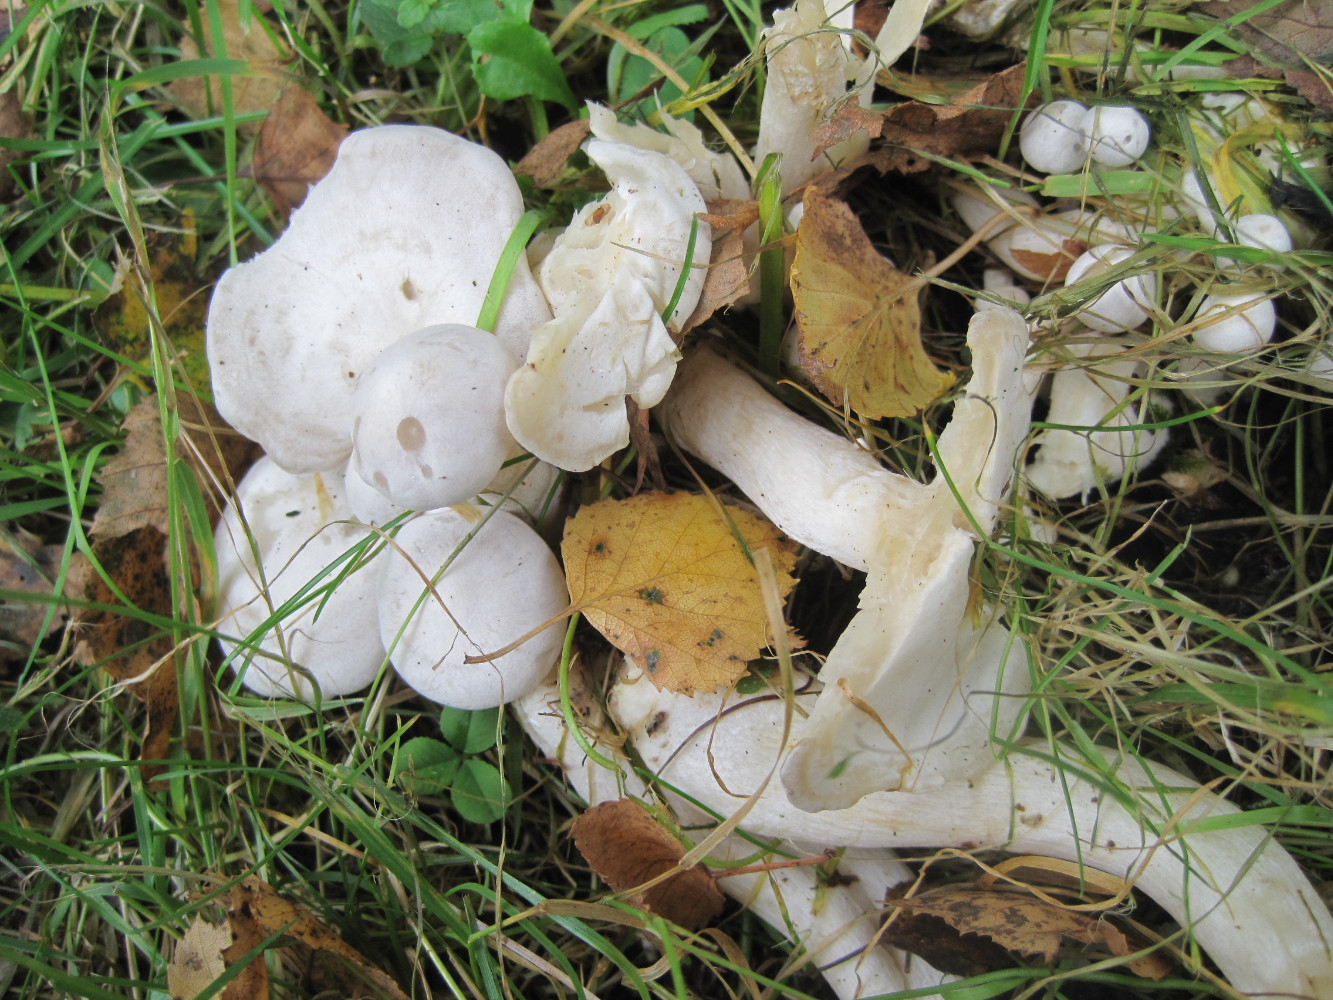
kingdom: Fungi
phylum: Basidiomycota
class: Agaricomycetes
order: Agaricales
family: Tricholomataceae
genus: Leucocybe
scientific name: Leucocybe connata
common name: knippe-tragthat
